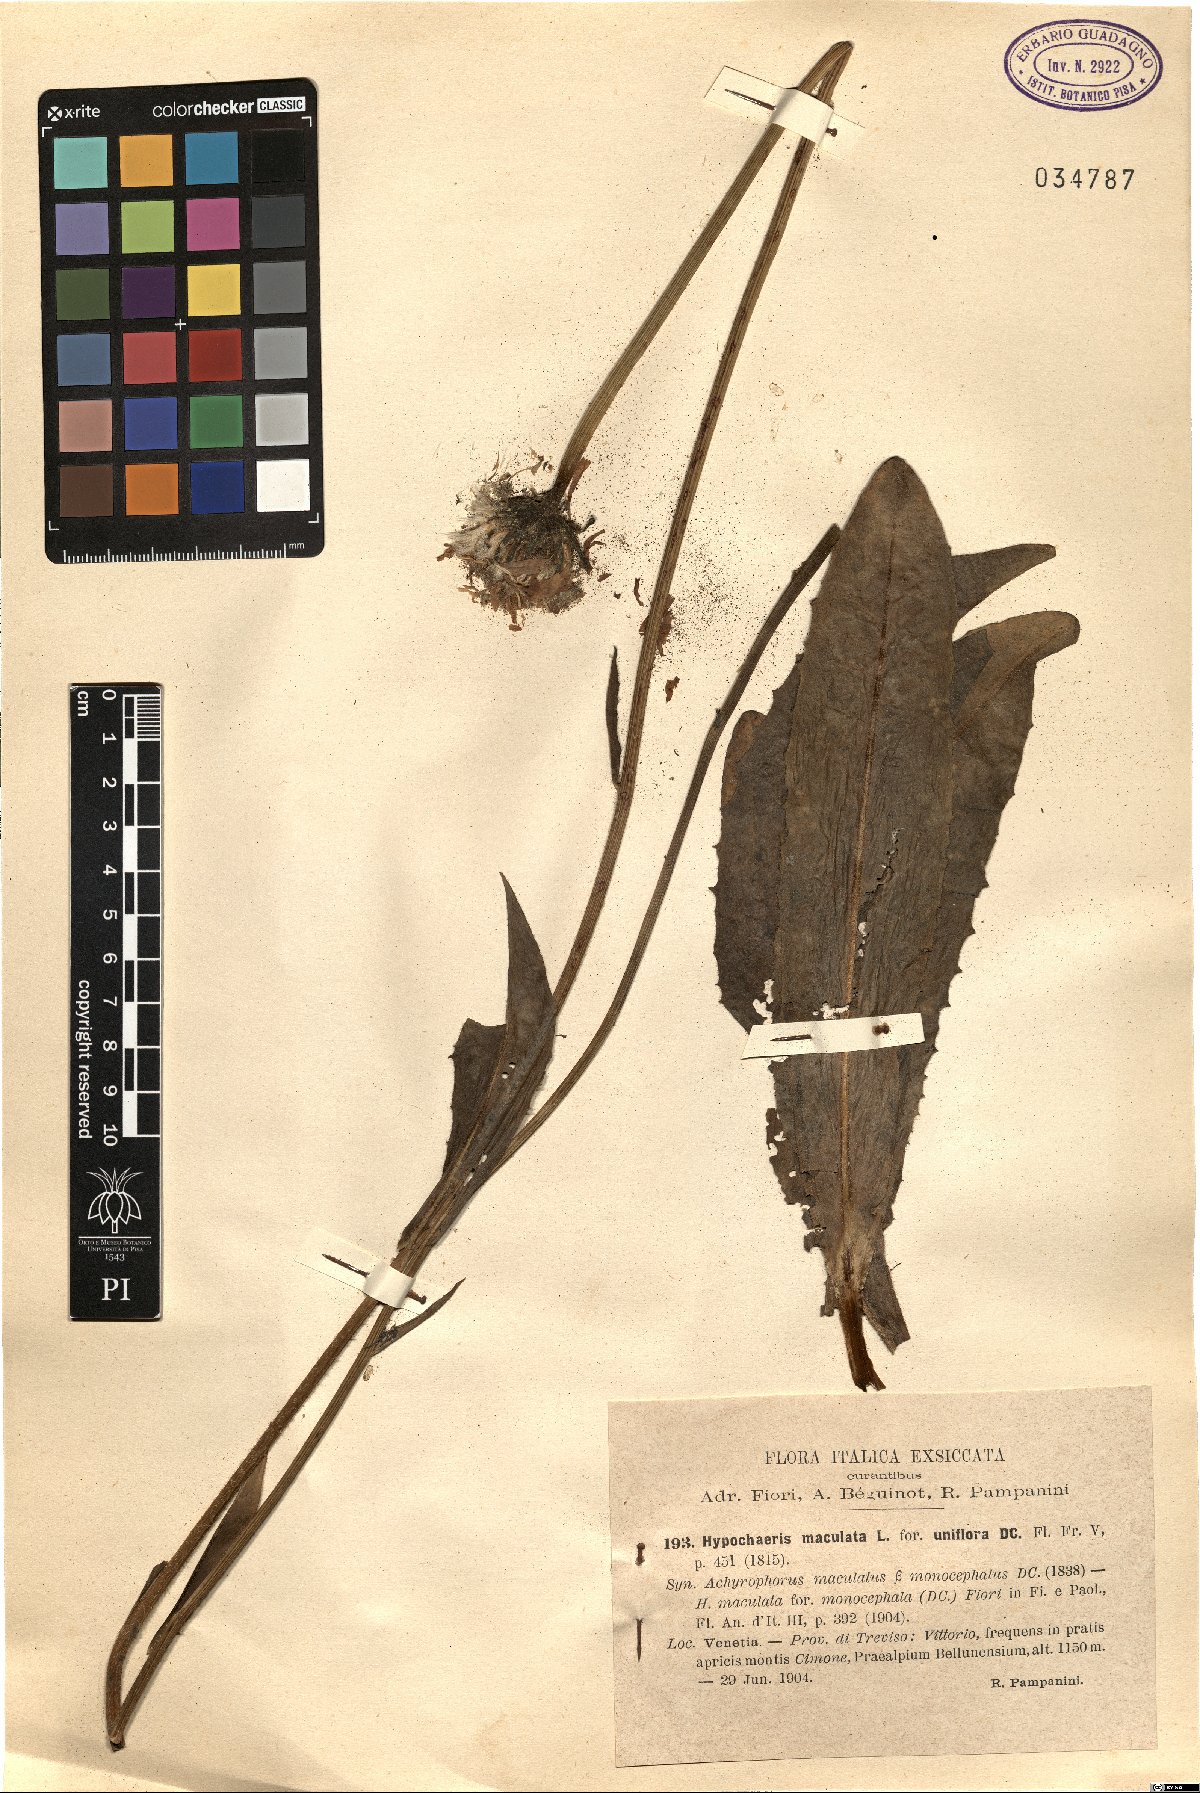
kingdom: Plantae
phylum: Tracheophyta
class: Magnoliopsida
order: Asterales
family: Asteraceae
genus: Trommsdorffia
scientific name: Trommsdorffia maculata
